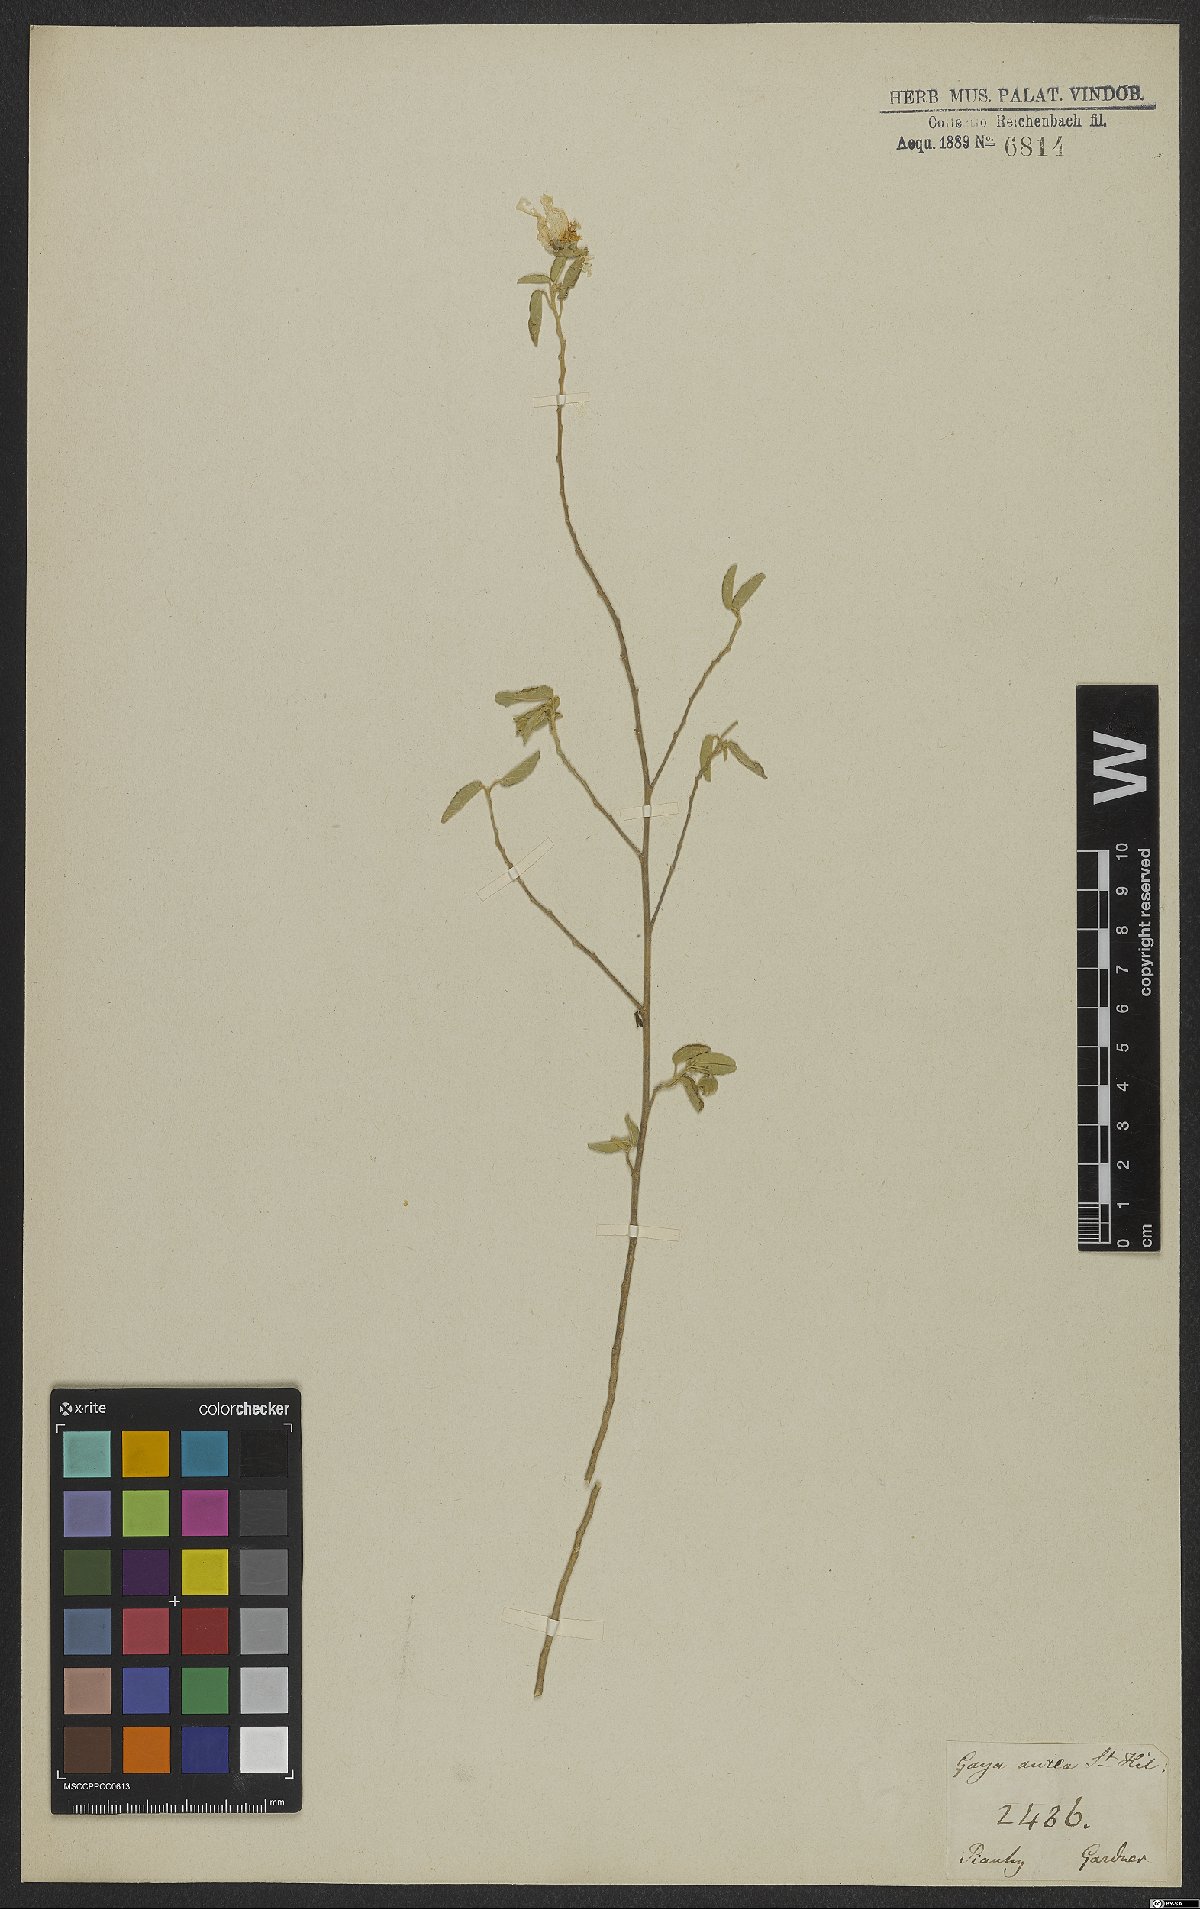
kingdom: Plantae
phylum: Tracheophyta
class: Magnoliopsida
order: Malvales
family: Malvaceae
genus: Gaya
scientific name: Gaya aurea
